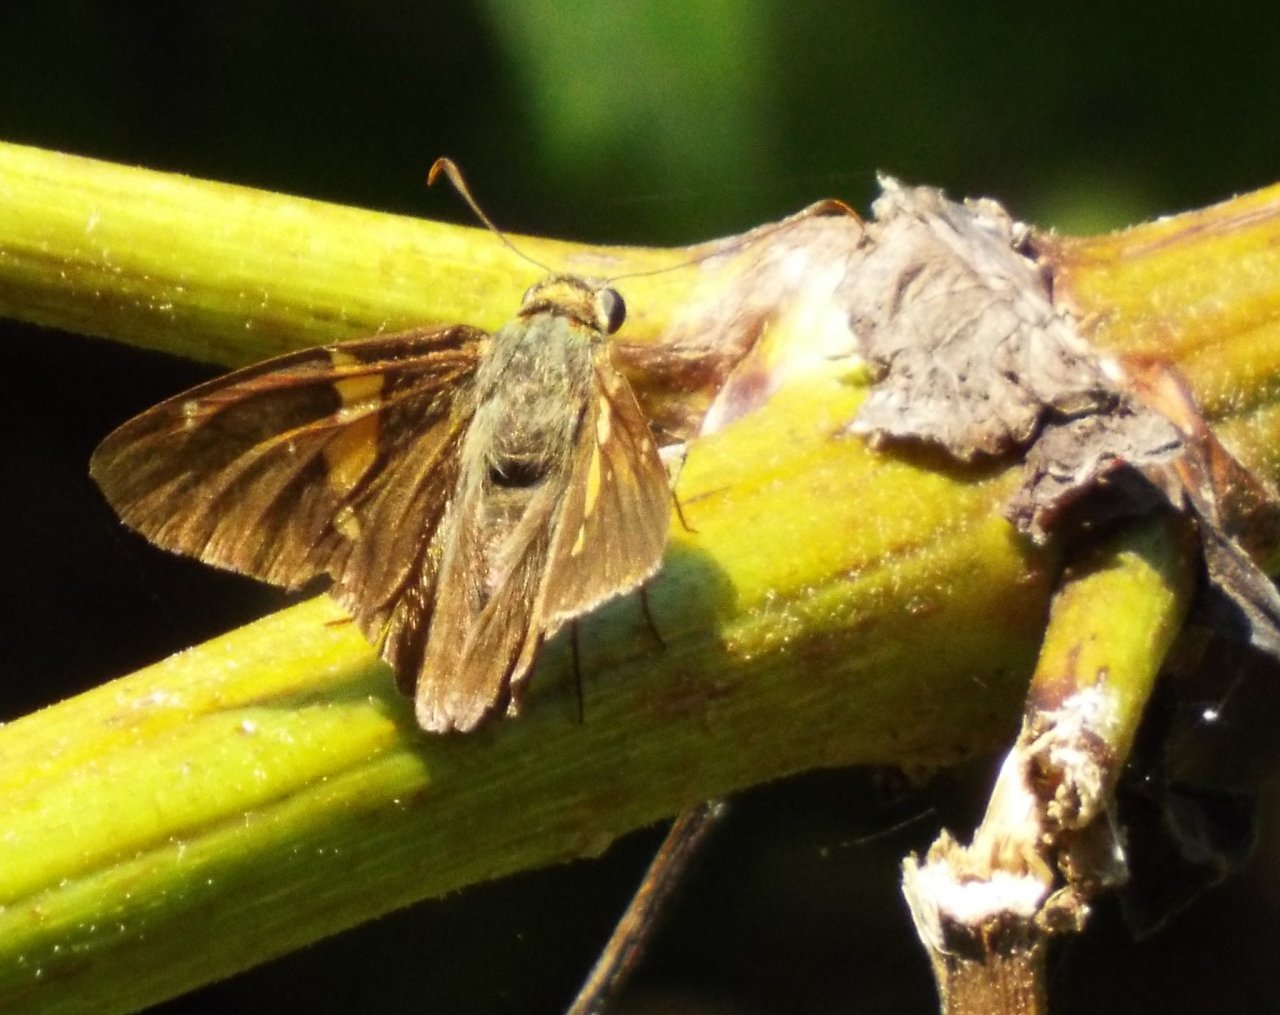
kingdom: Animalia
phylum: Arthropoda
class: Insecta
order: Lepidoptera
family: Hesperiidae
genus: Epargyreus
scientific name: Epargyreus clarus
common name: Silver-spotted Skipper
